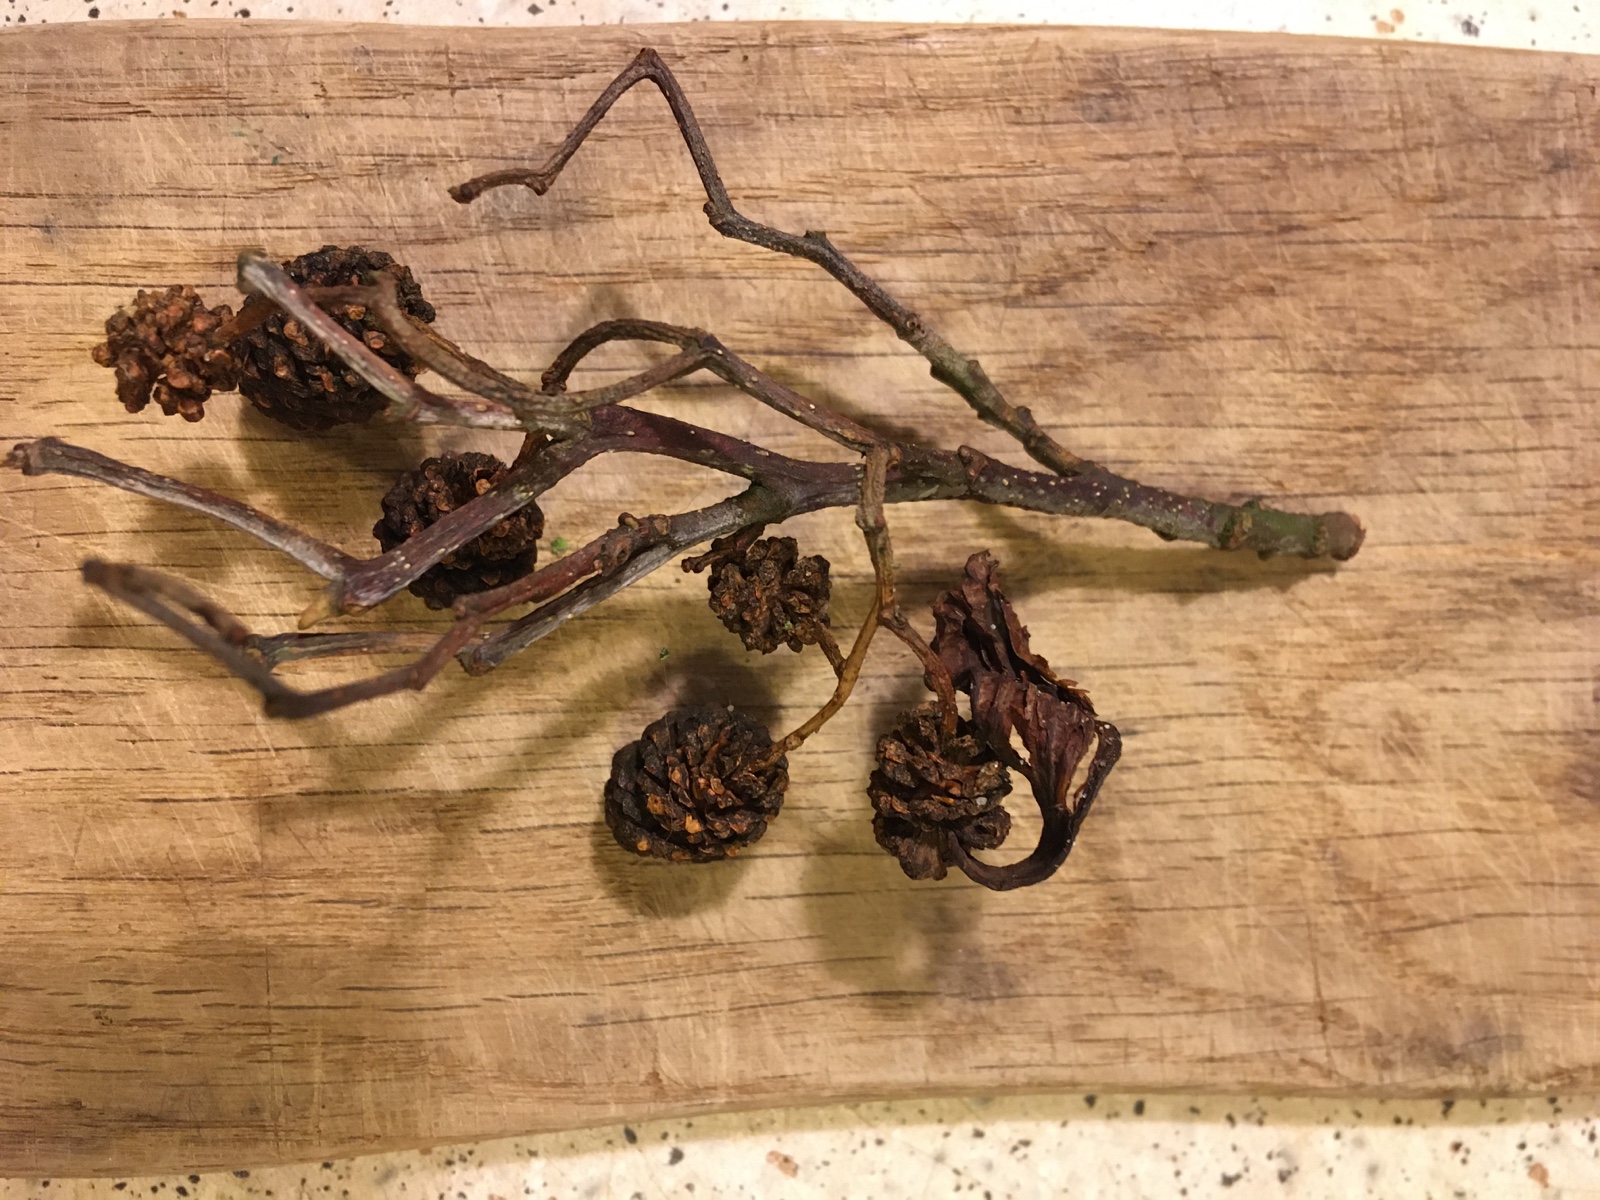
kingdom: Fungi
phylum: Ascomycota
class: Taphrinomycetes
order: Taphrinales
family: Taphrinaceae
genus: Taphrina
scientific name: Taphrina alni
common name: Alder tongue
